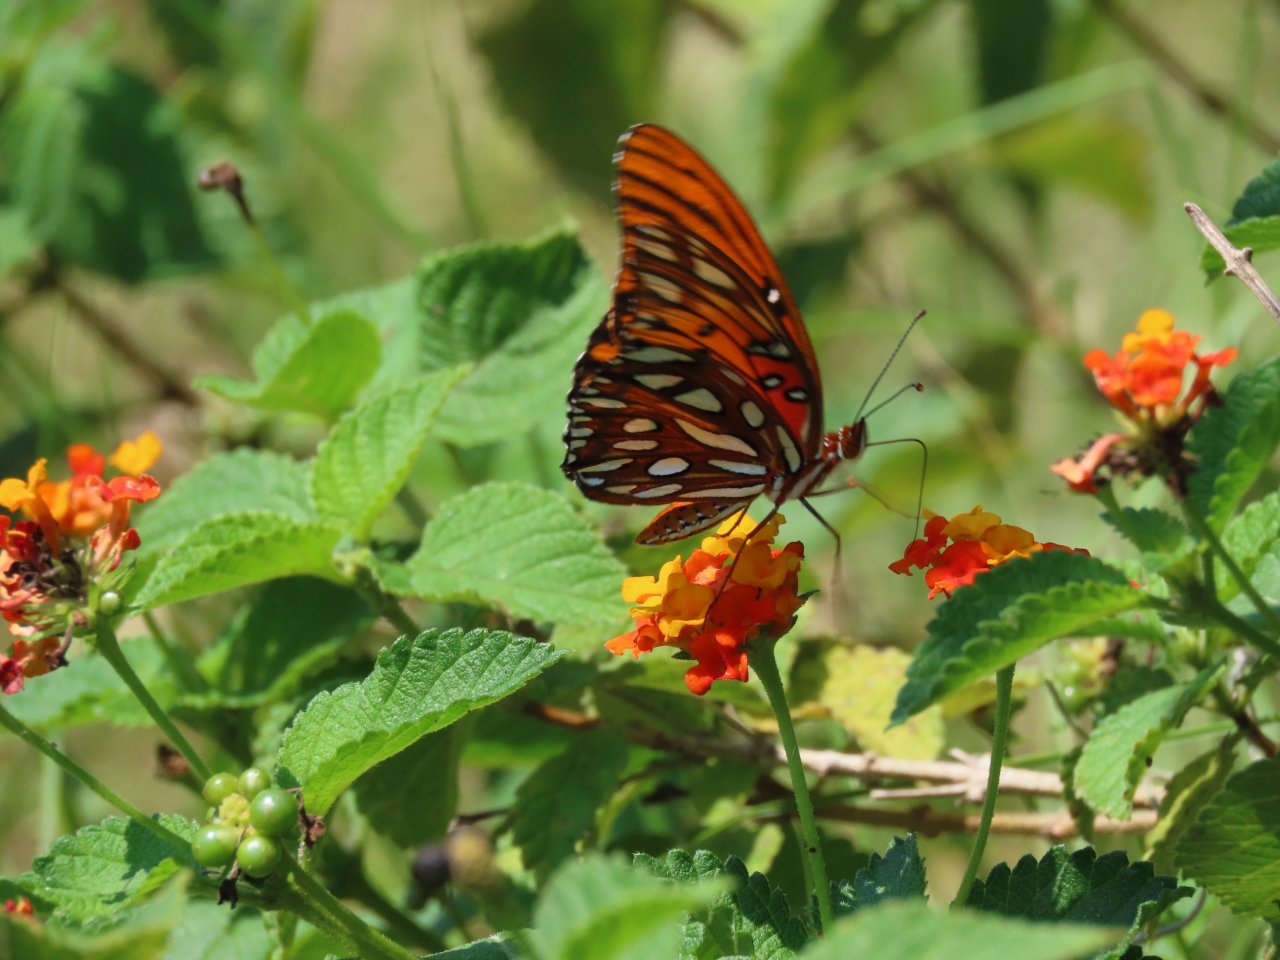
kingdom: Animalia
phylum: Arthropoda
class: Insecta
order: Lepidoptera
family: Nymphalidae
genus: Dione
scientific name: Dione vanillae
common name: Gulf Fritillary
